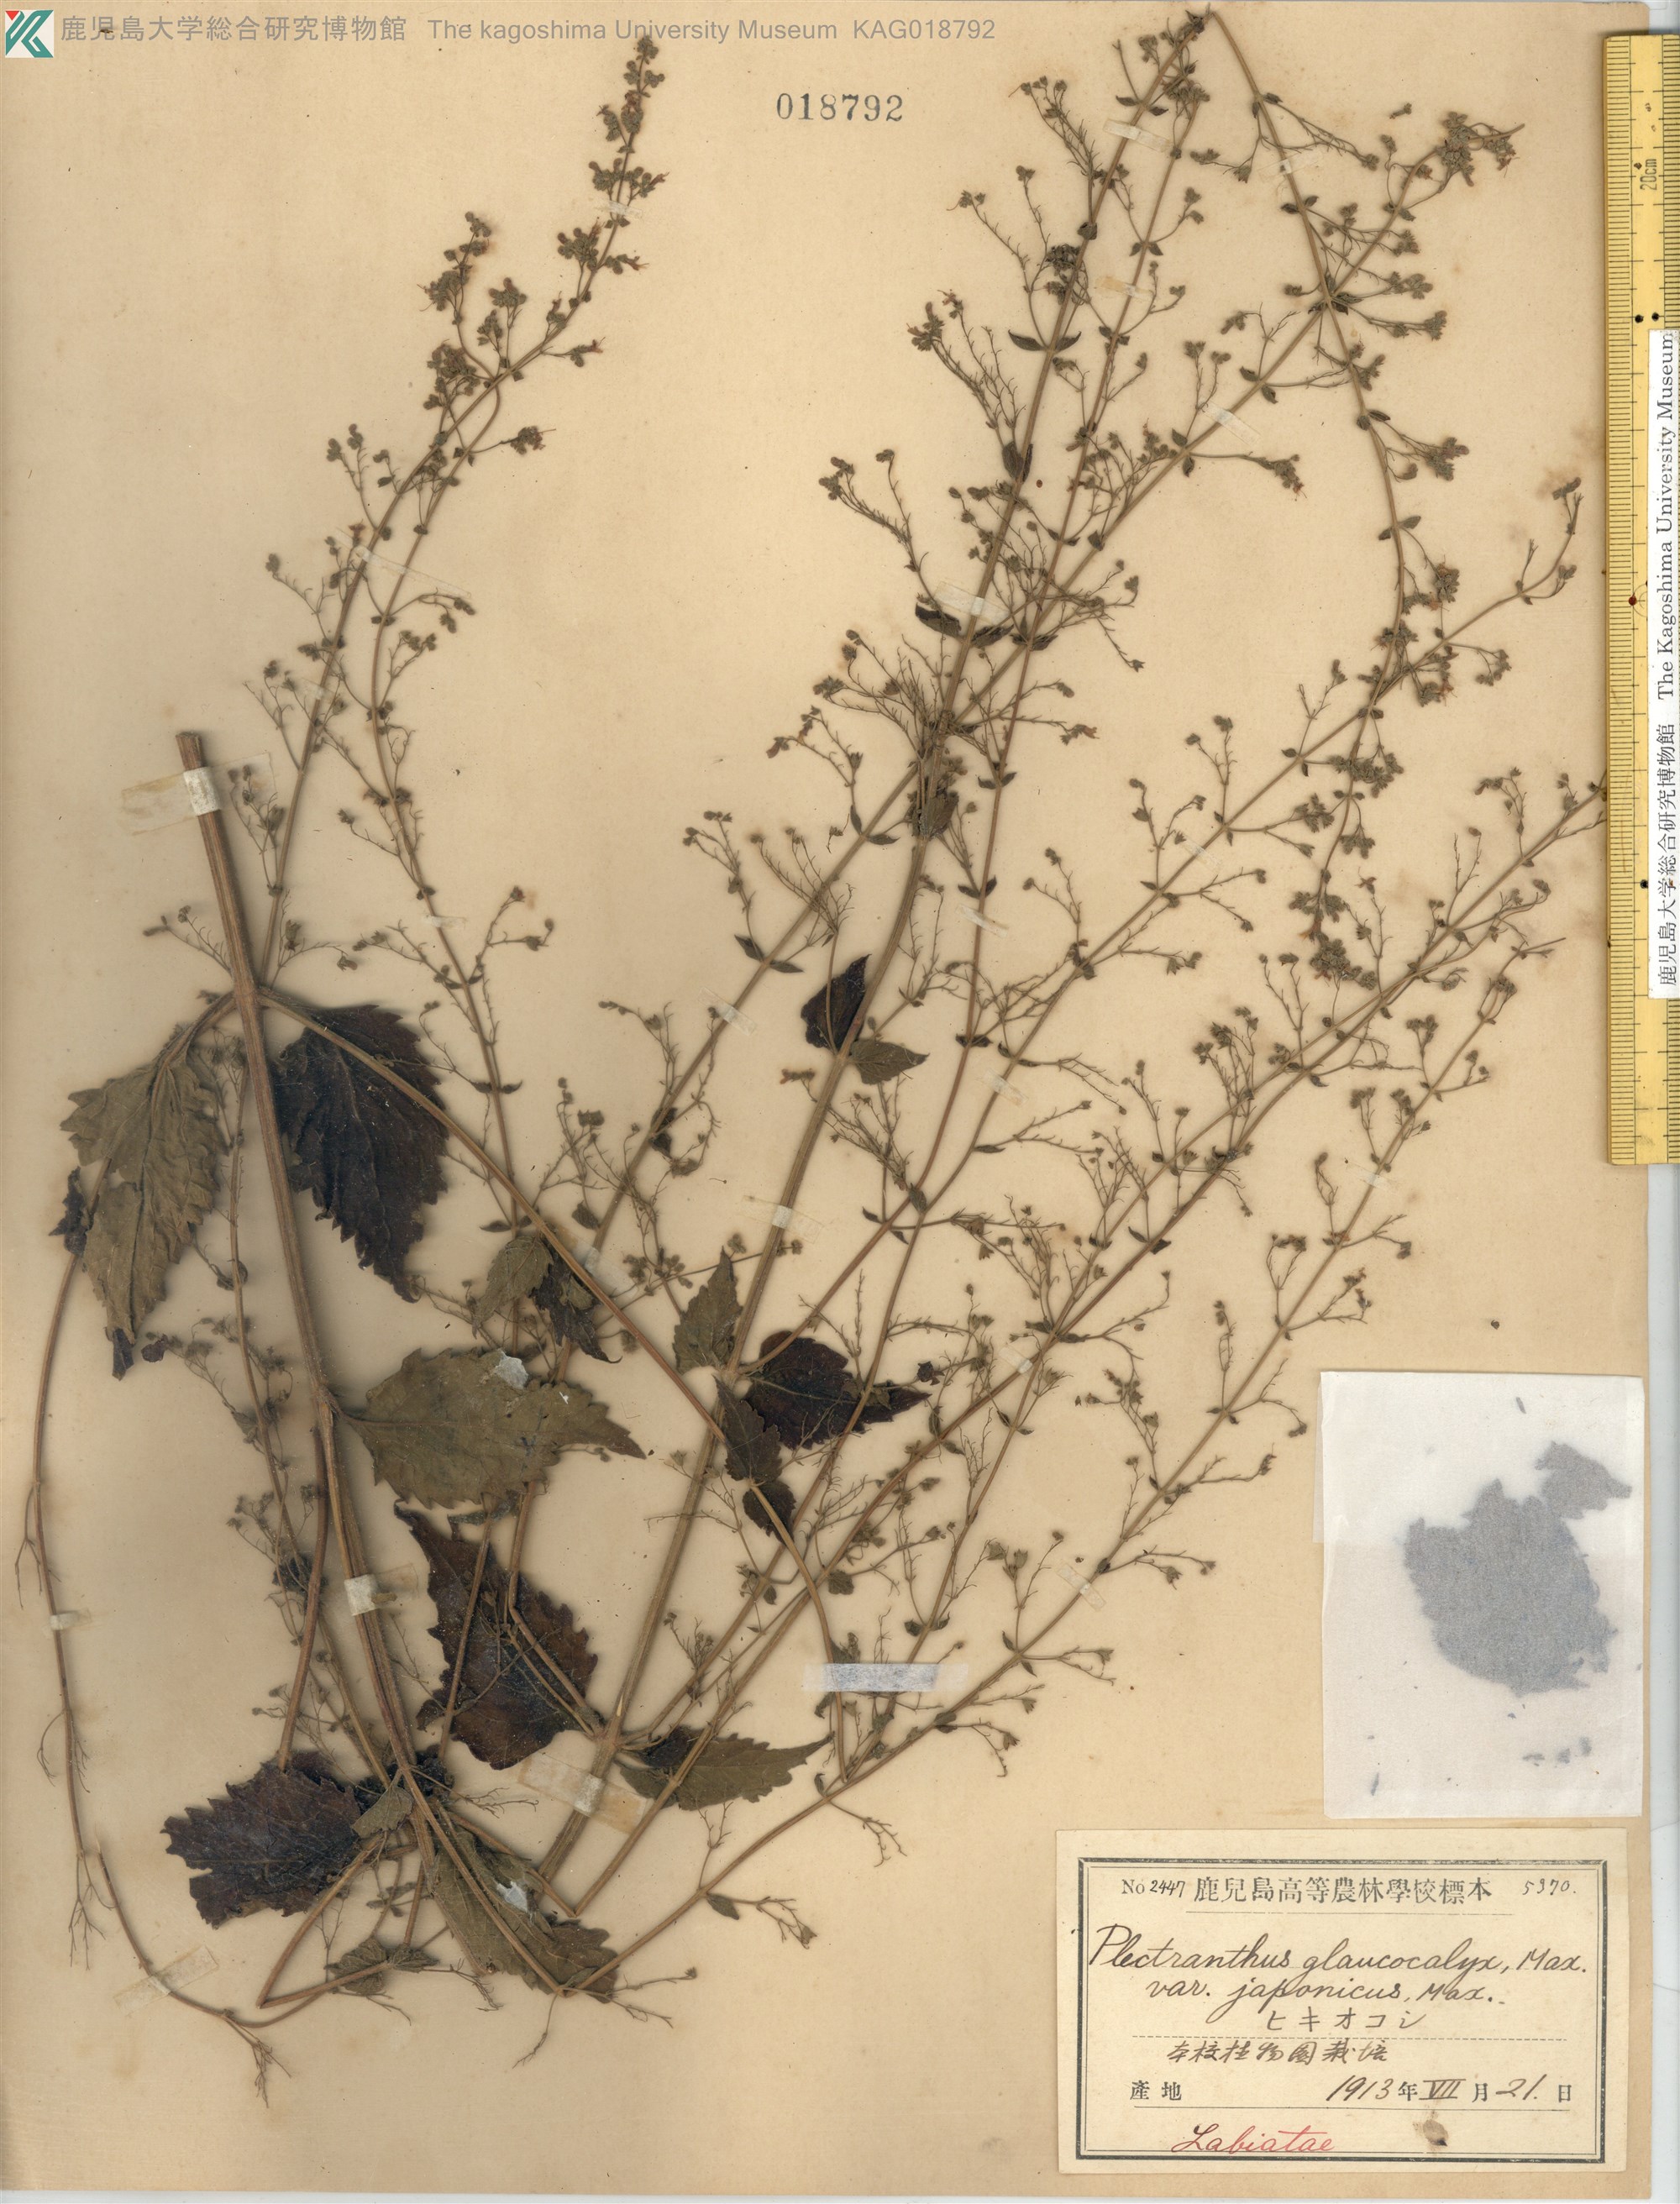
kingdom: Plantae
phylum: Tracheophyta
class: Magnoliopsida
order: Lamiales
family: Lamiaceae
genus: Isodon
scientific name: Isodon japonicus
